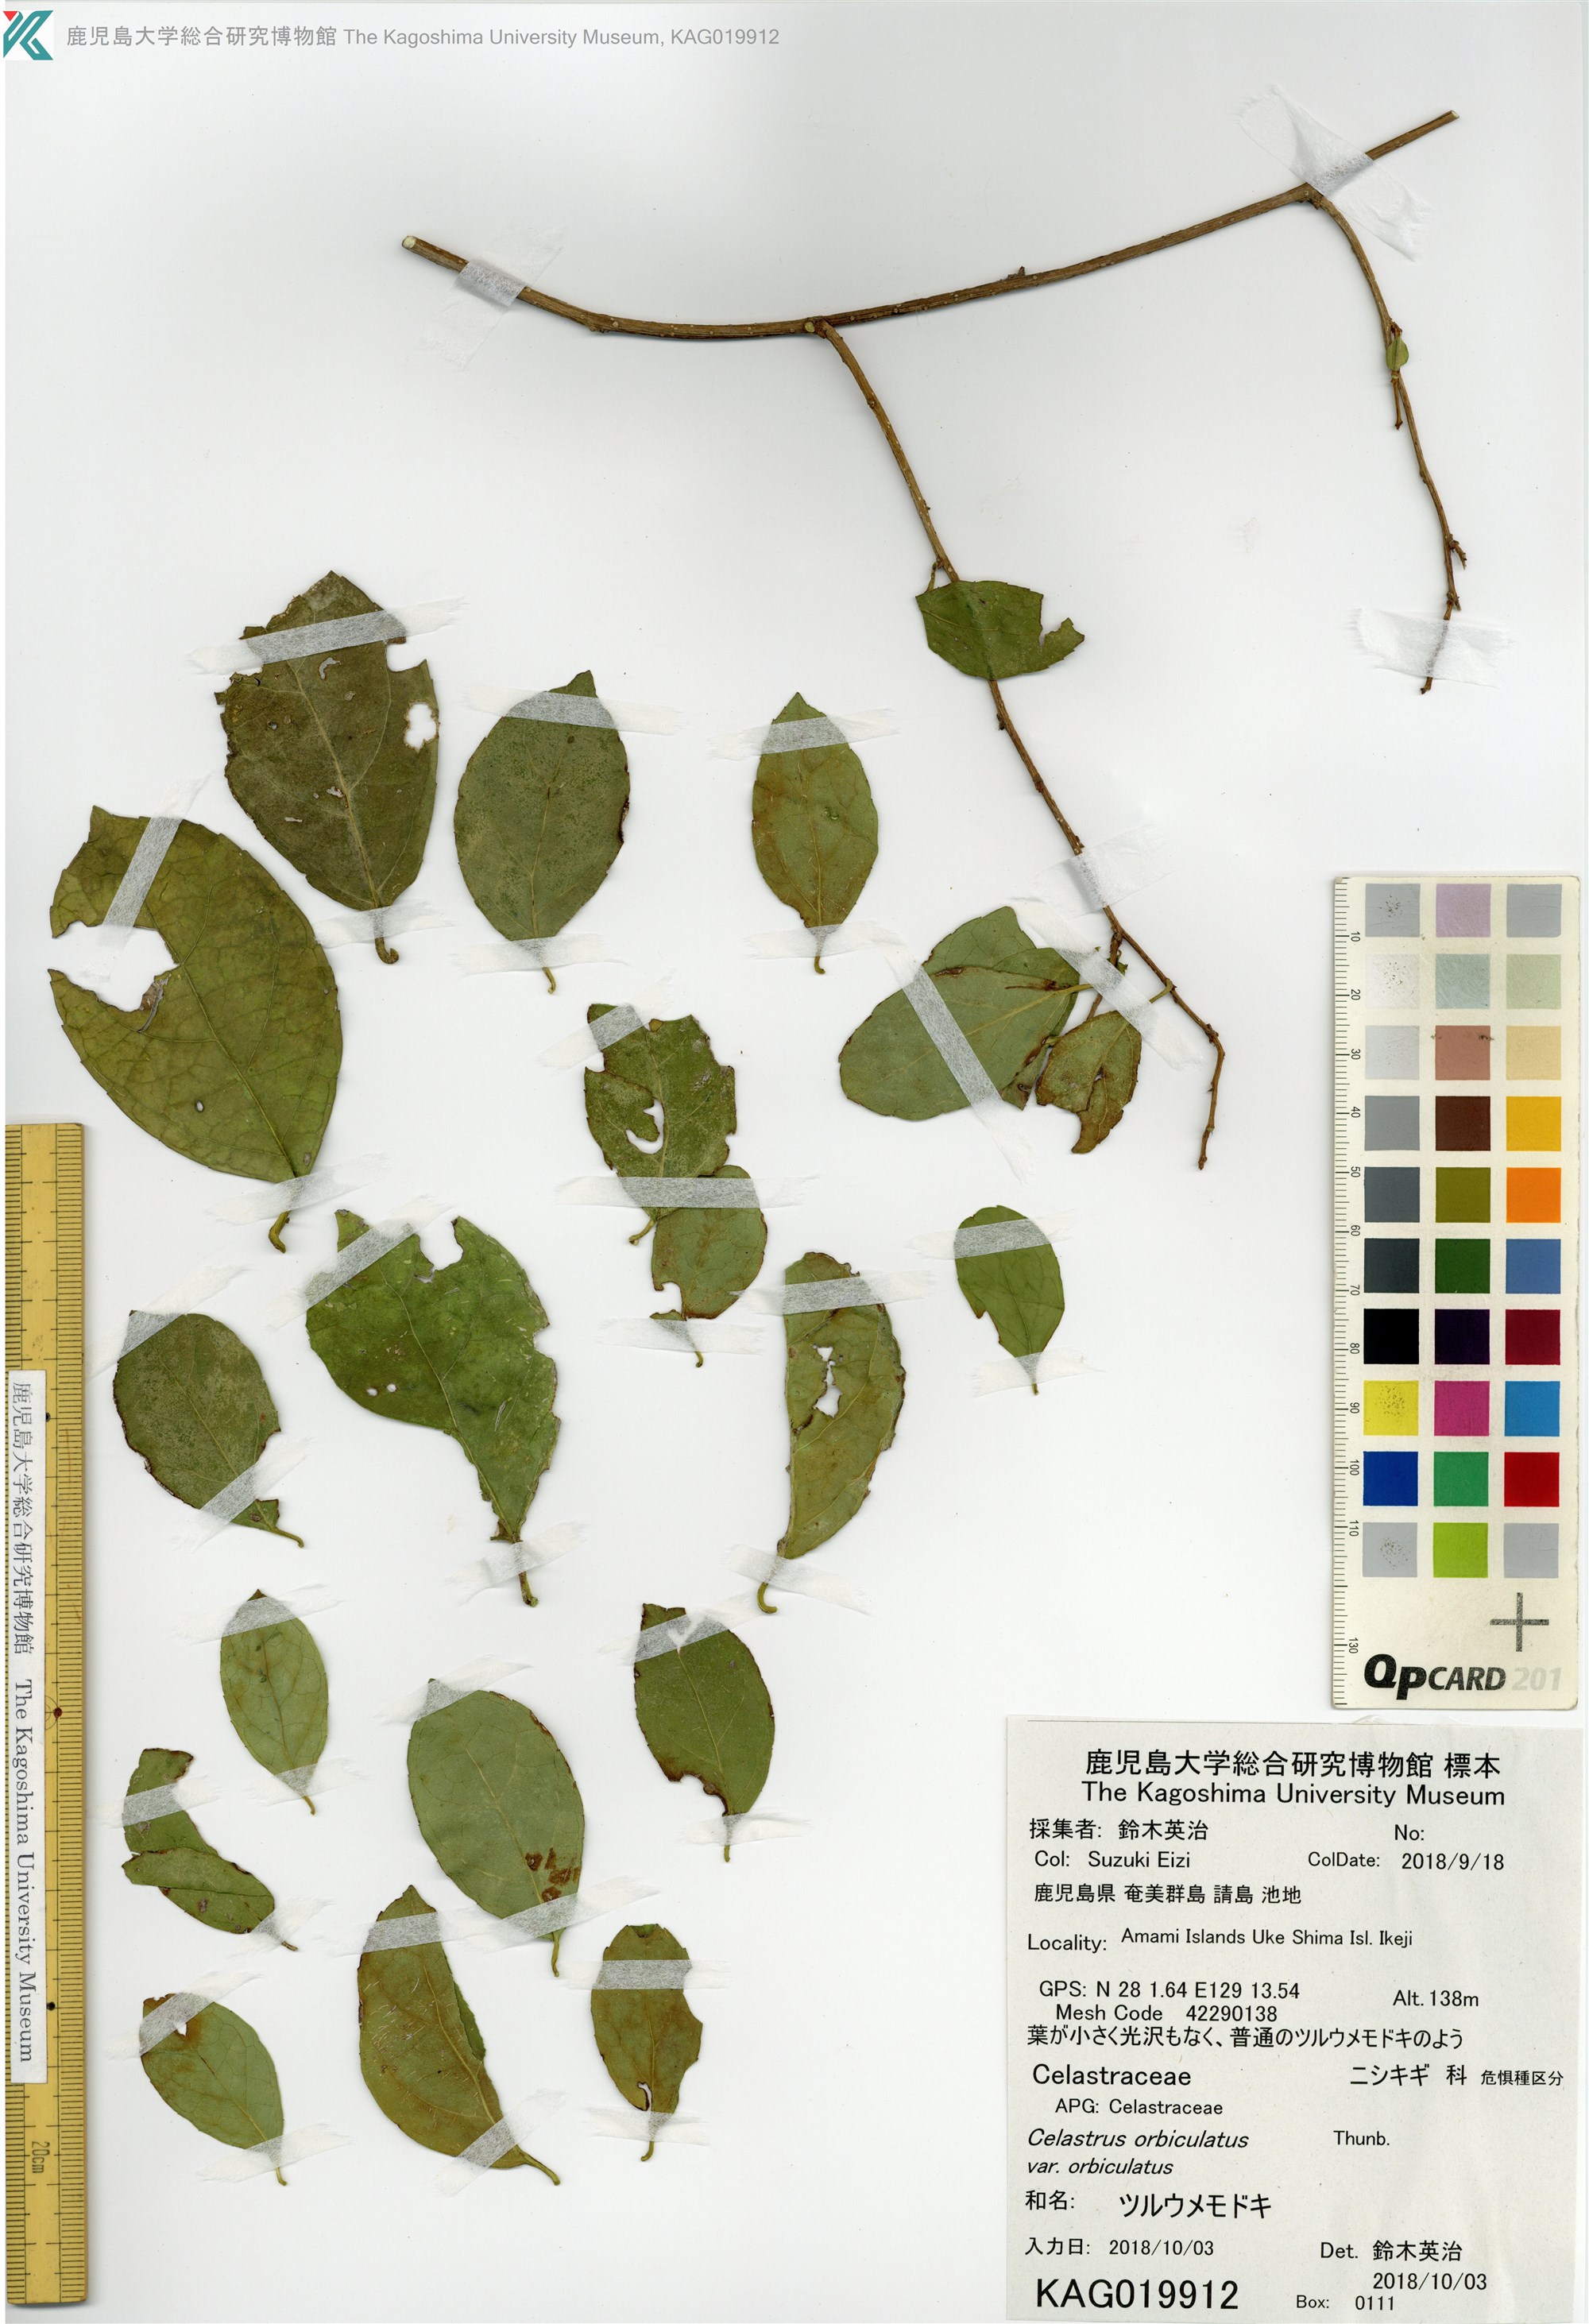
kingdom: Plantae
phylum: Tracheophyta
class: Magnoliopsida
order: Celastrales
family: Celastraceae
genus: Celastrus
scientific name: Celastrus punctatus
